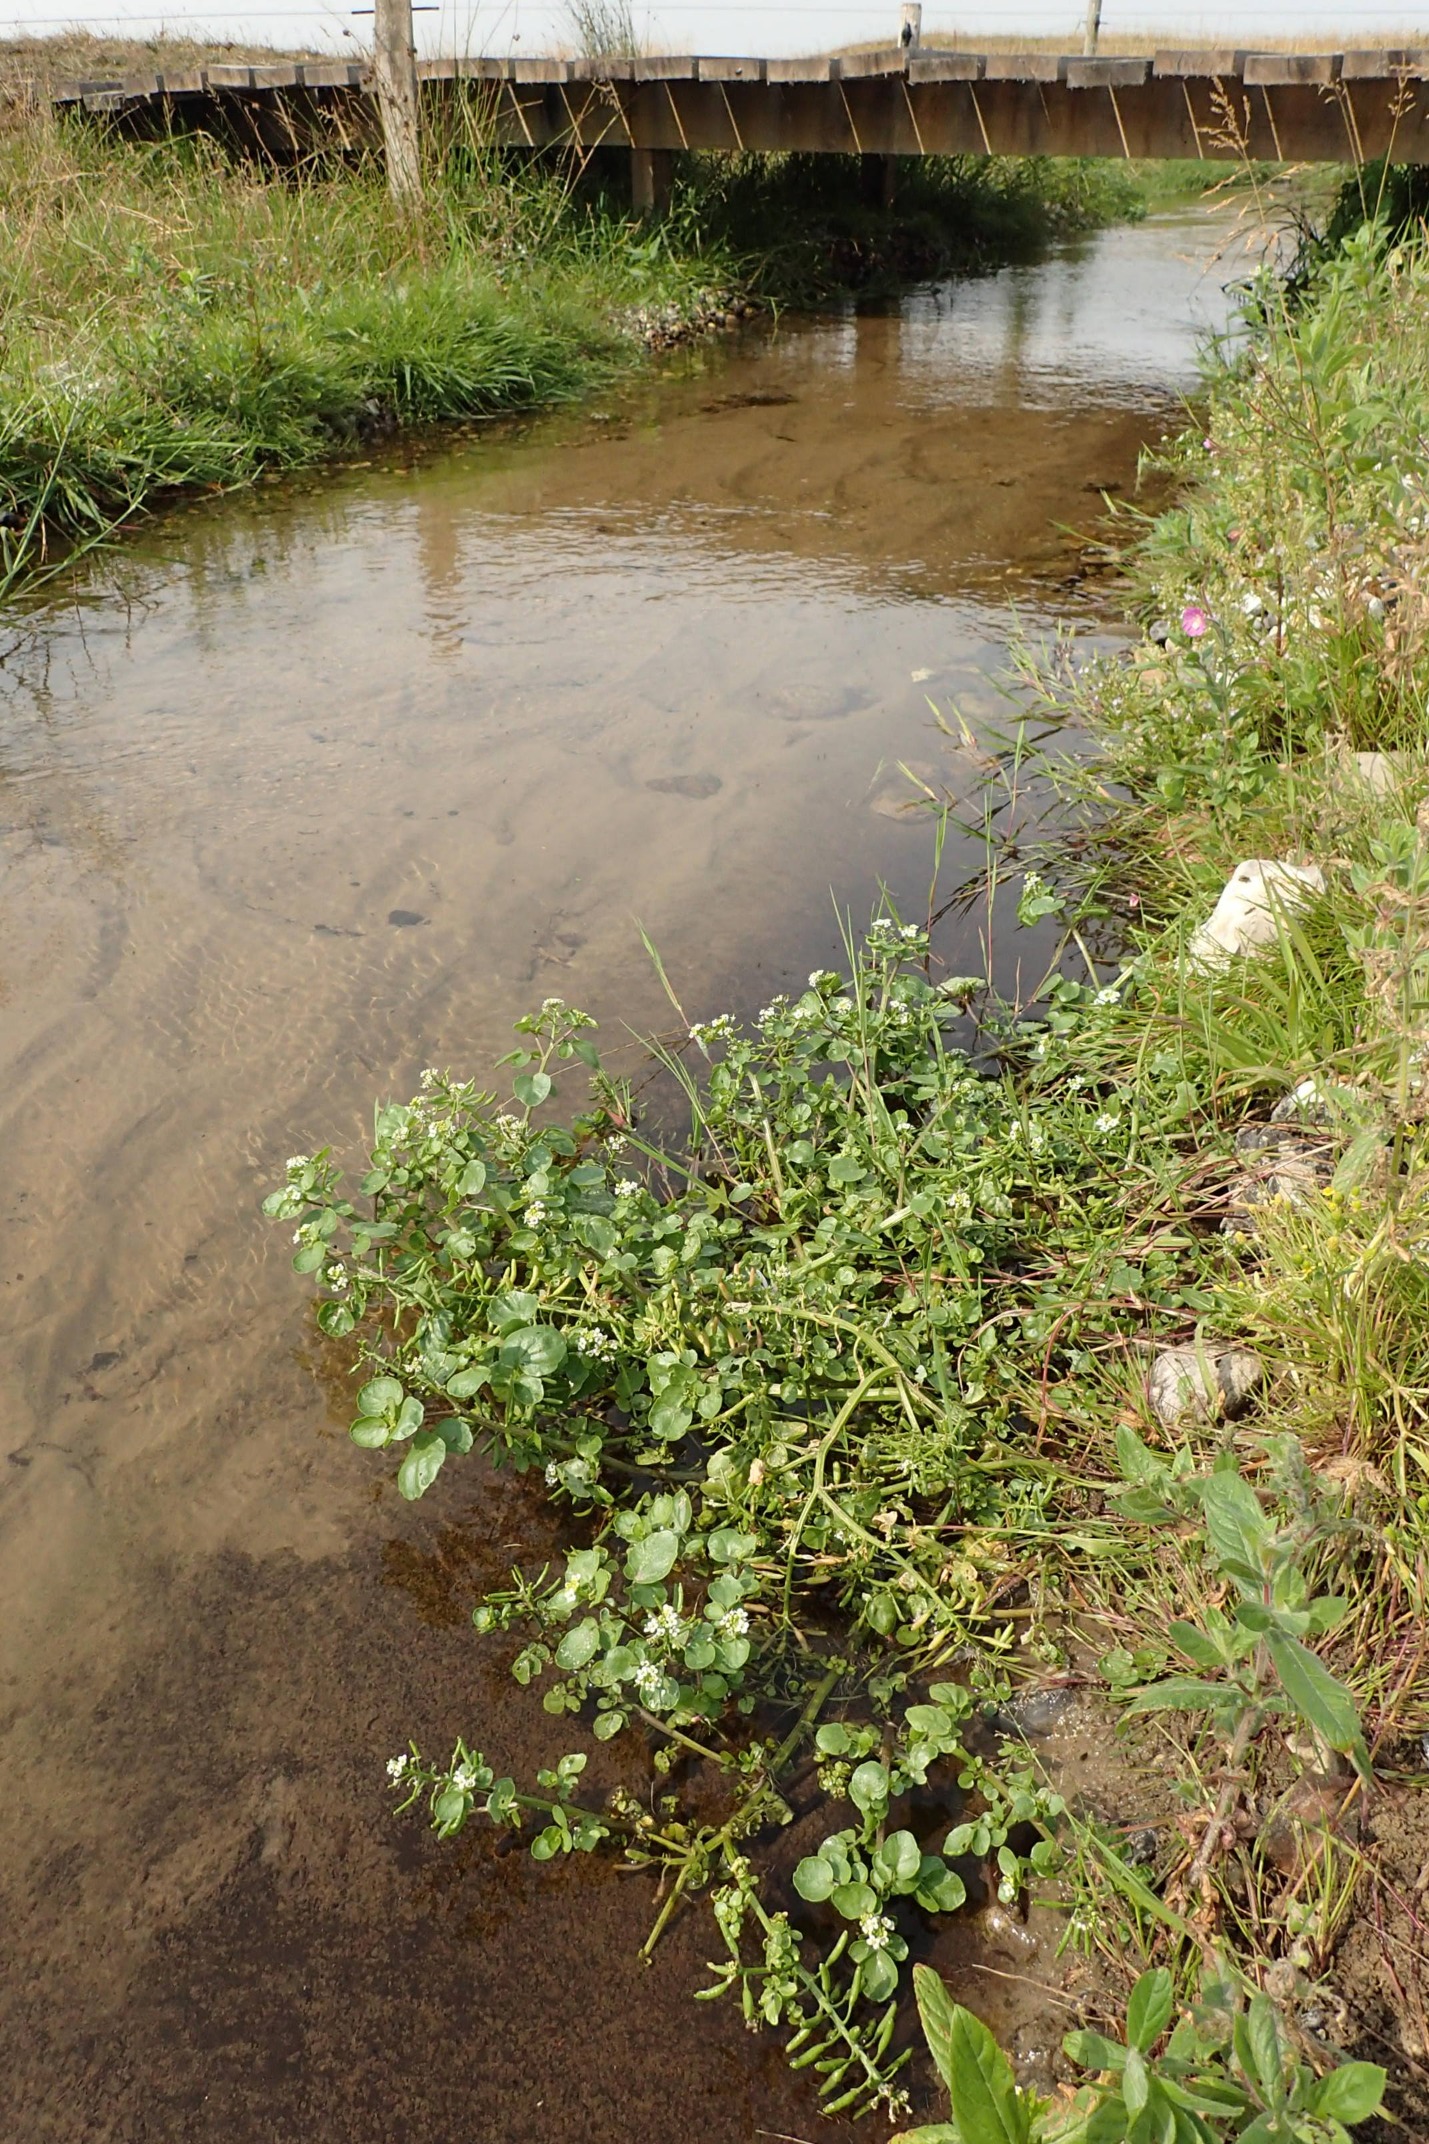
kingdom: Plantae
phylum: Tracheophyta
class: Magnoliopsida
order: Brassicales
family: Brassicaceae
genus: Nasturtium
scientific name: Nasturtium officinale
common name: Tykskulpet brøndkarse
